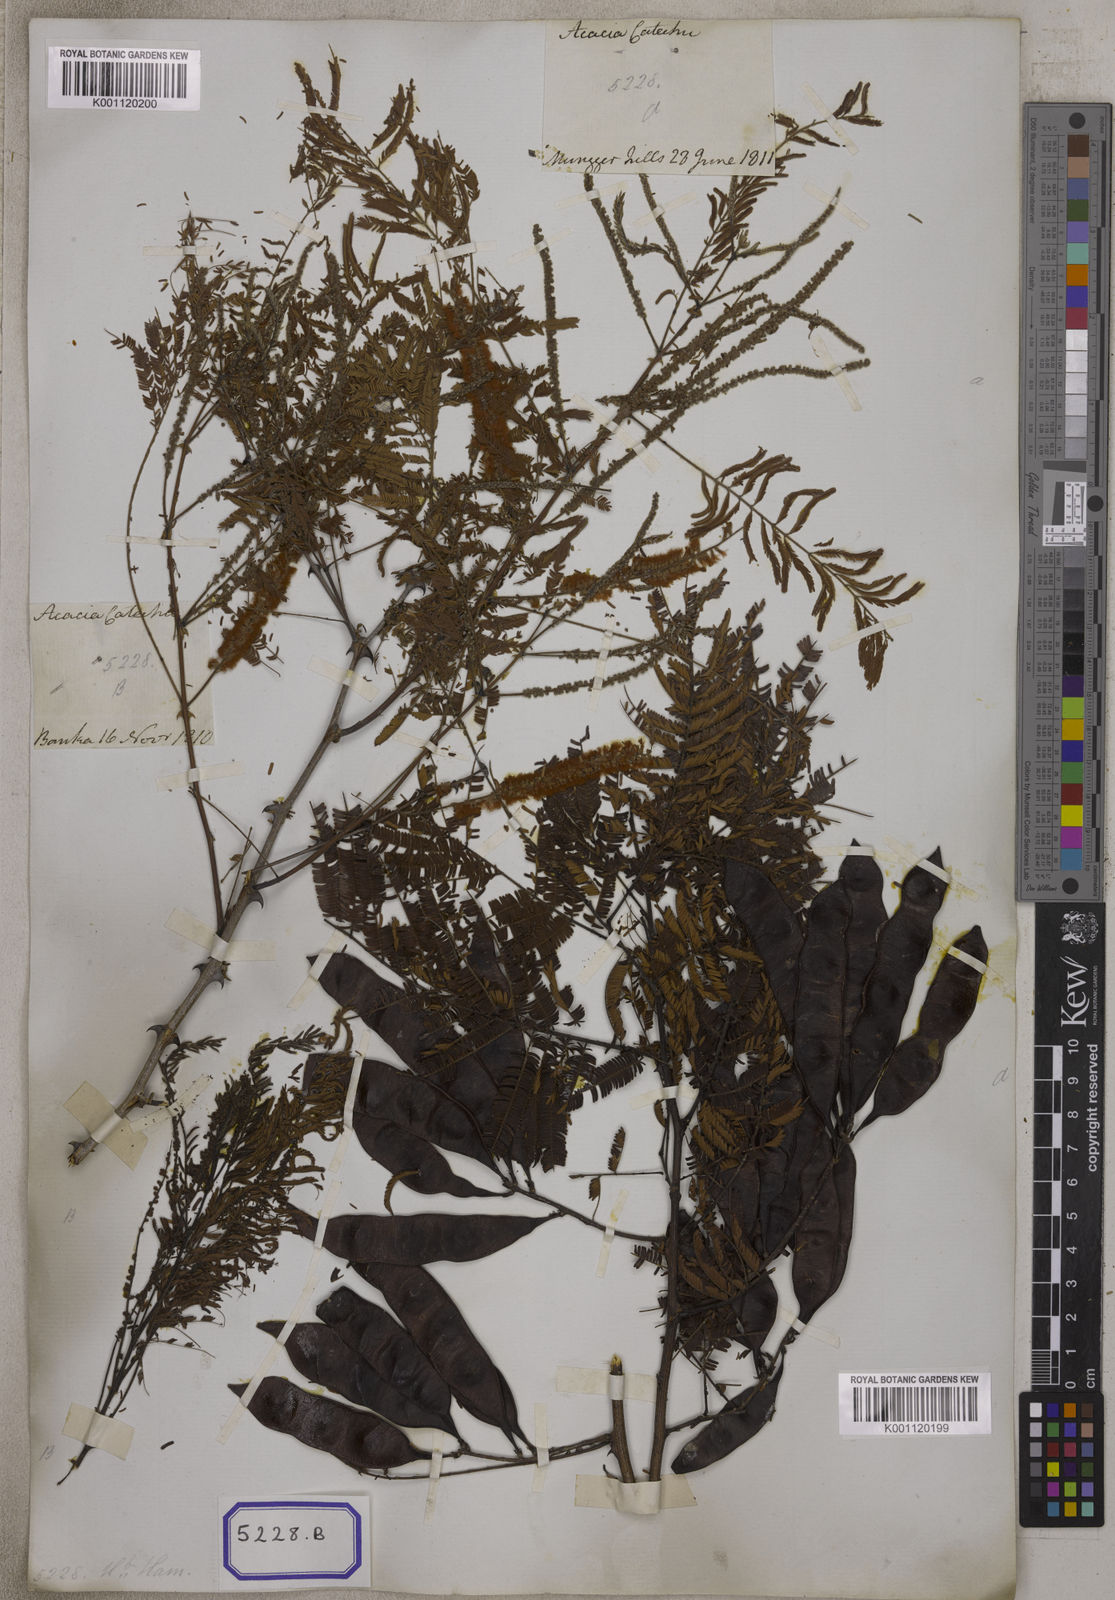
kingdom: Plantae
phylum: Tracheophyta
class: Magnoliopsida
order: Fabales
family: Fabaceae
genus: Senegalia
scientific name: Senegalia catechu
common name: Black cutch
